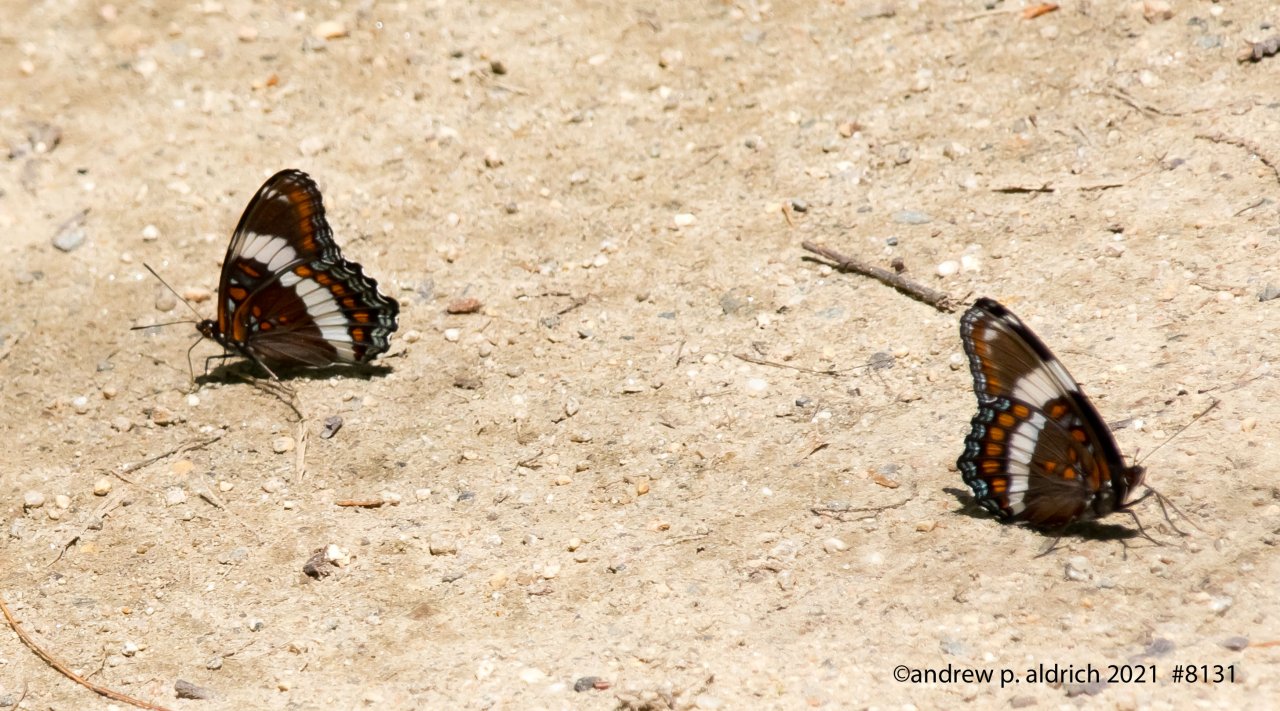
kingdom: Animalia
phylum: Arthropoda
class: Insecta
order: Lepidoptera
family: Nymphalidae
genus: Limenitis
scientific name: Limenitis
